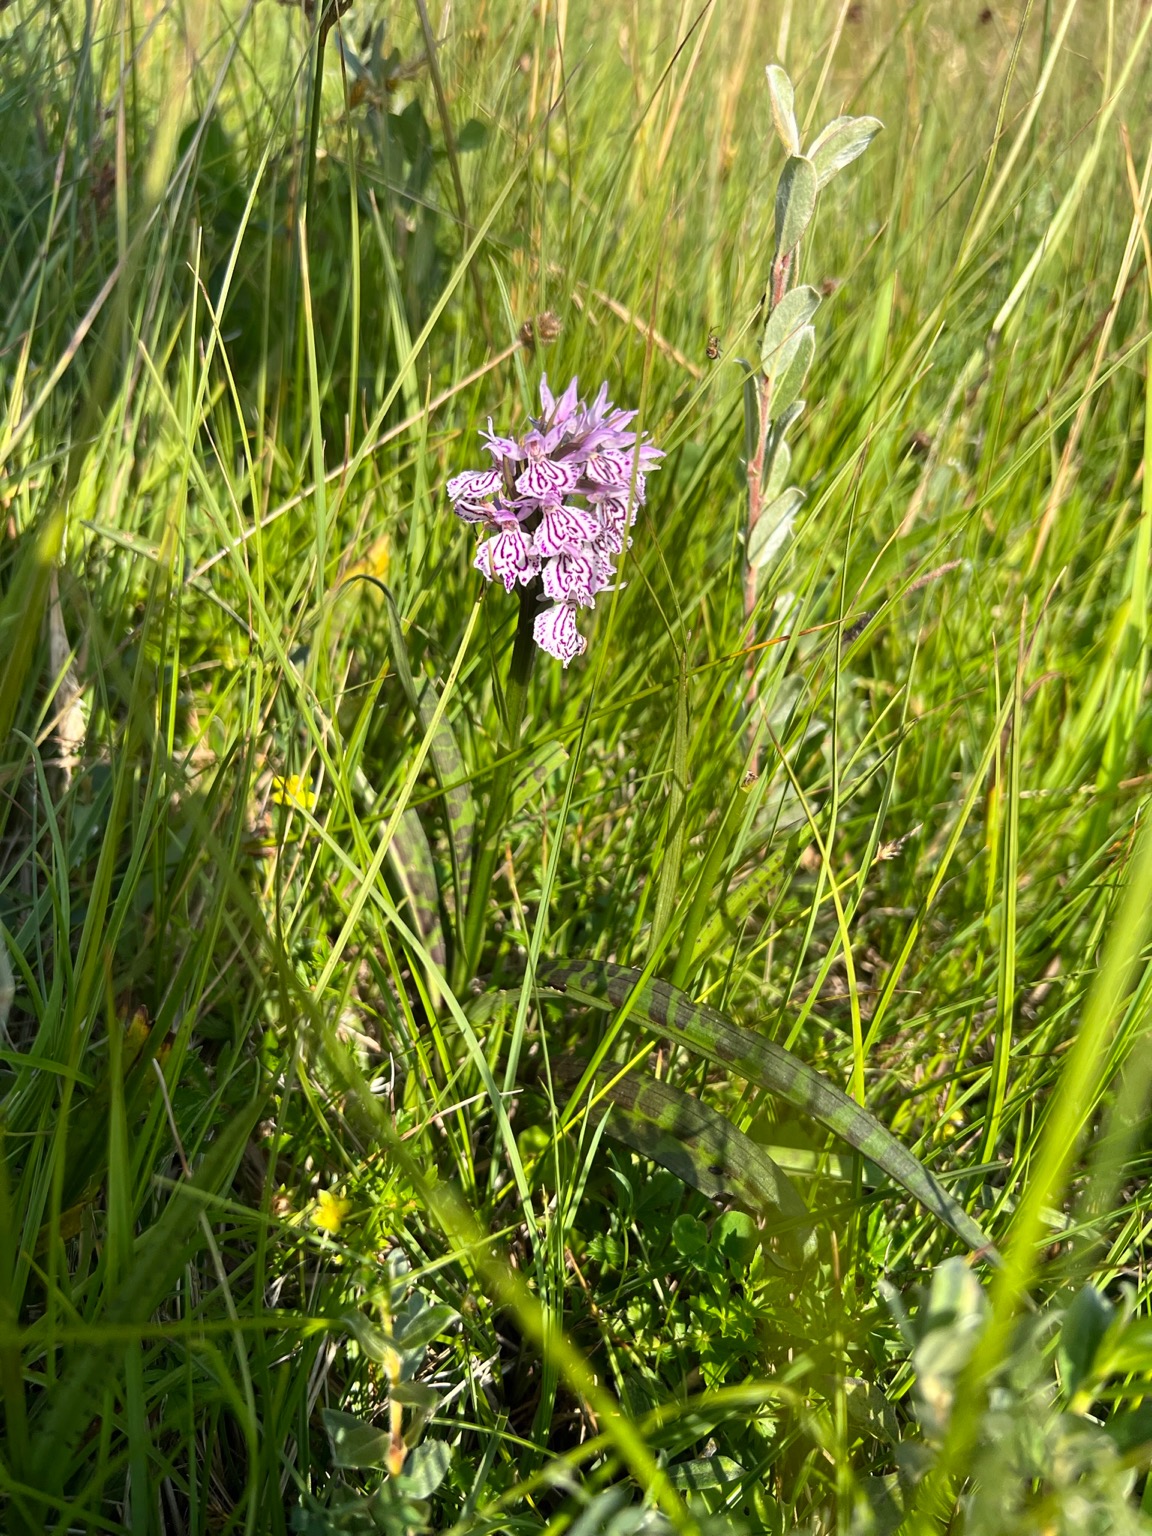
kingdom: Plantae
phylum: Tracheophyta
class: Liliopsida
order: Asparagales
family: Orchidaceae
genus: Dactylorhiza
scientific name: Dactylorhiza maculata
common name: Plettet gøgeurt
